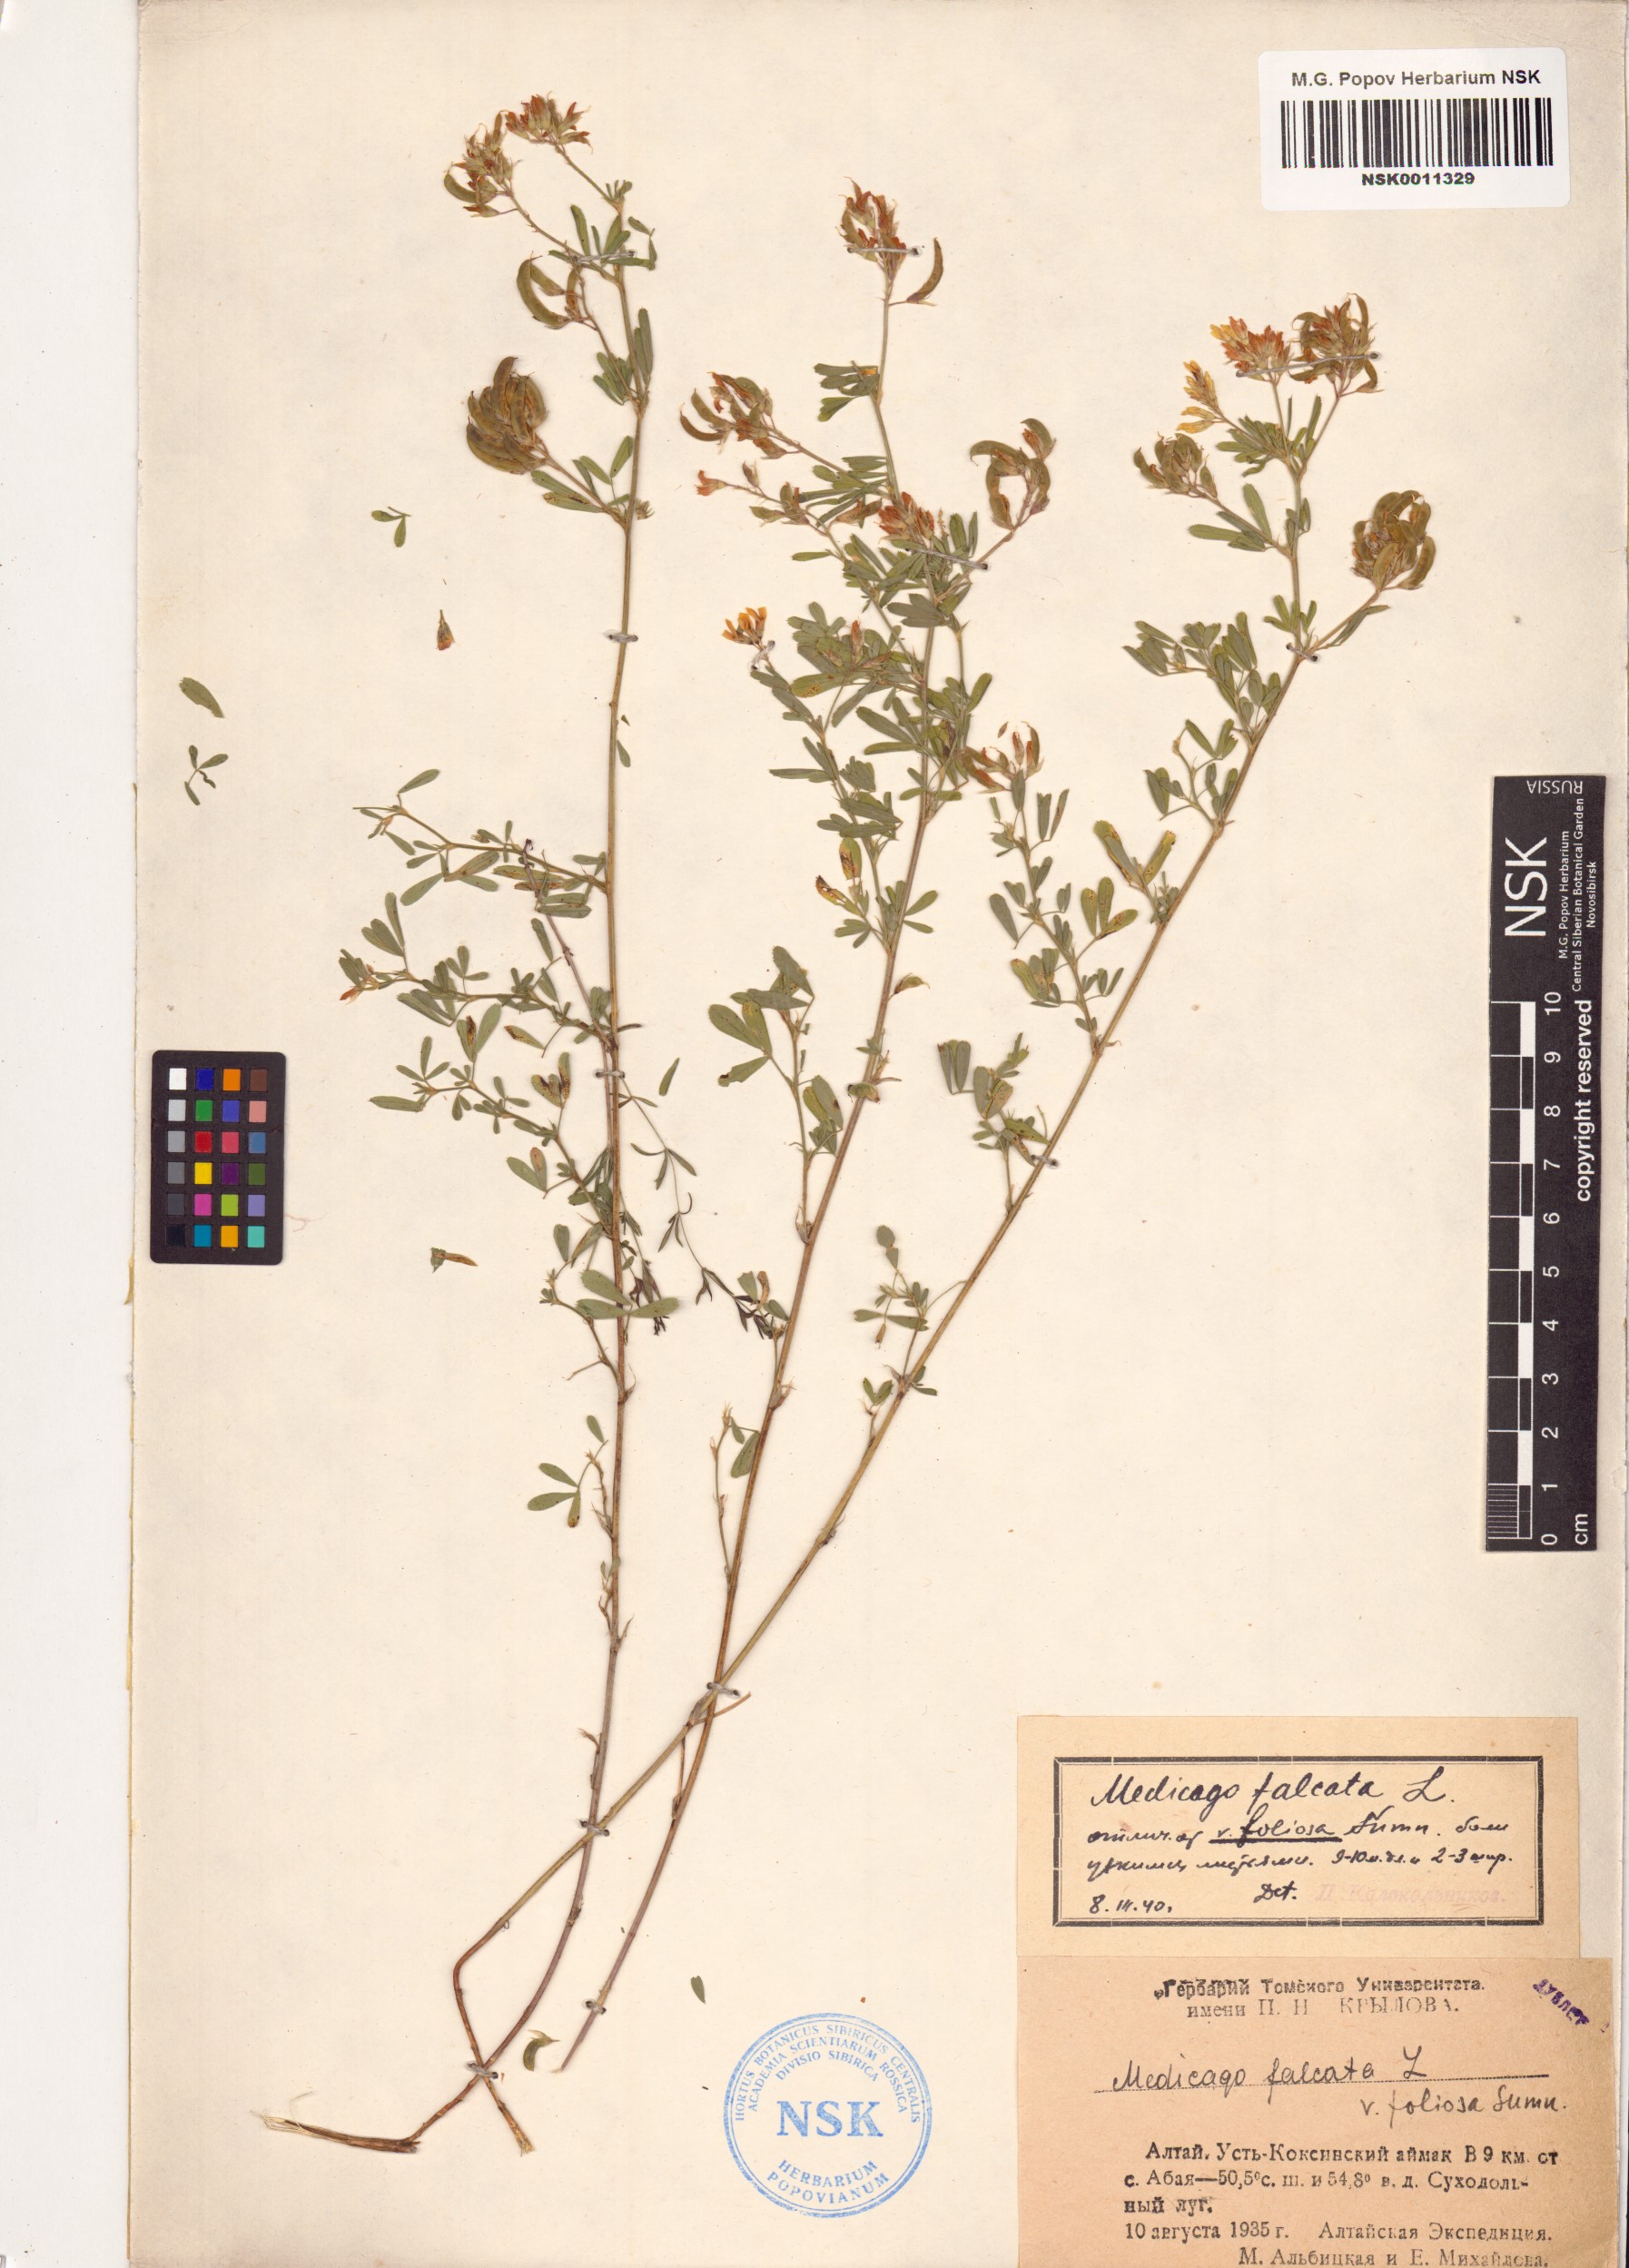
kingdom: Plantae
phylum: Tracheophyta
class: Magnoliopsida
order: Fabales
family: Fabaceae
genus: Medicago
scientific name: Medicago falcata
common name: Sickle medick
